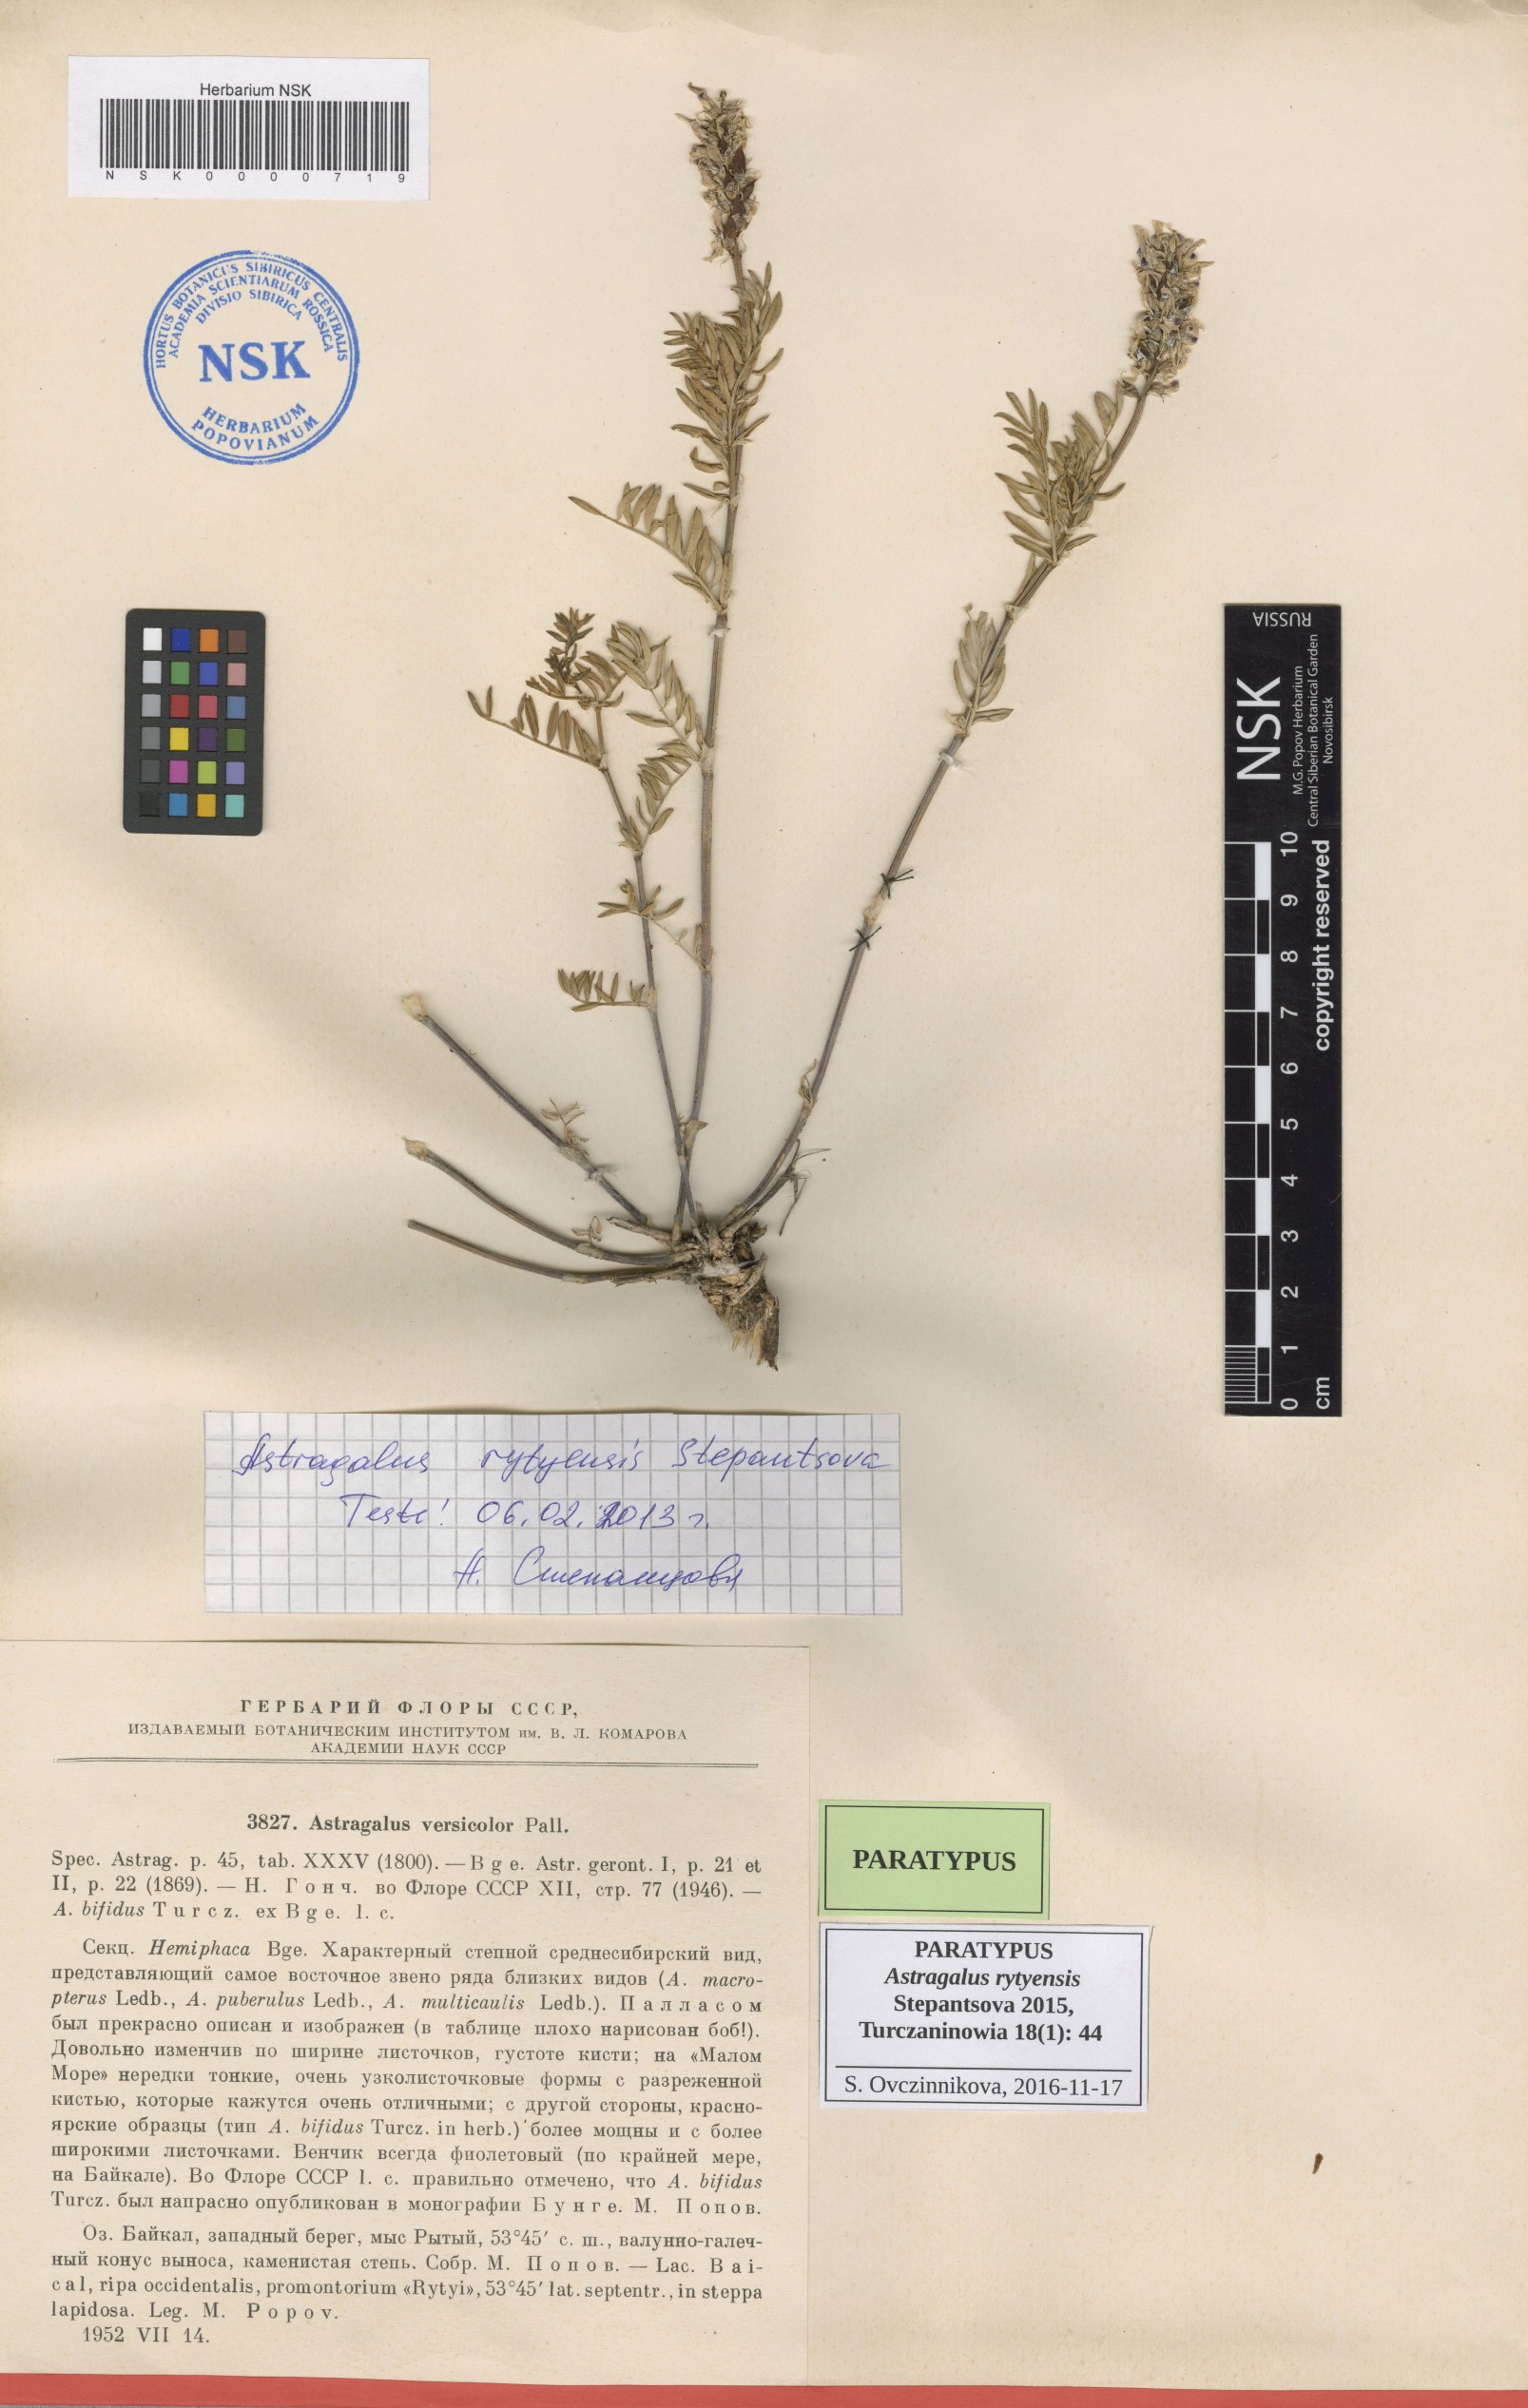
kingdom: Plantae
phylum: Tracheophyta
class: Magnoliopsida
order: Fabales
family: Fabaceae
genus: Astragalus
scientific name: Astragalus rytyensis
